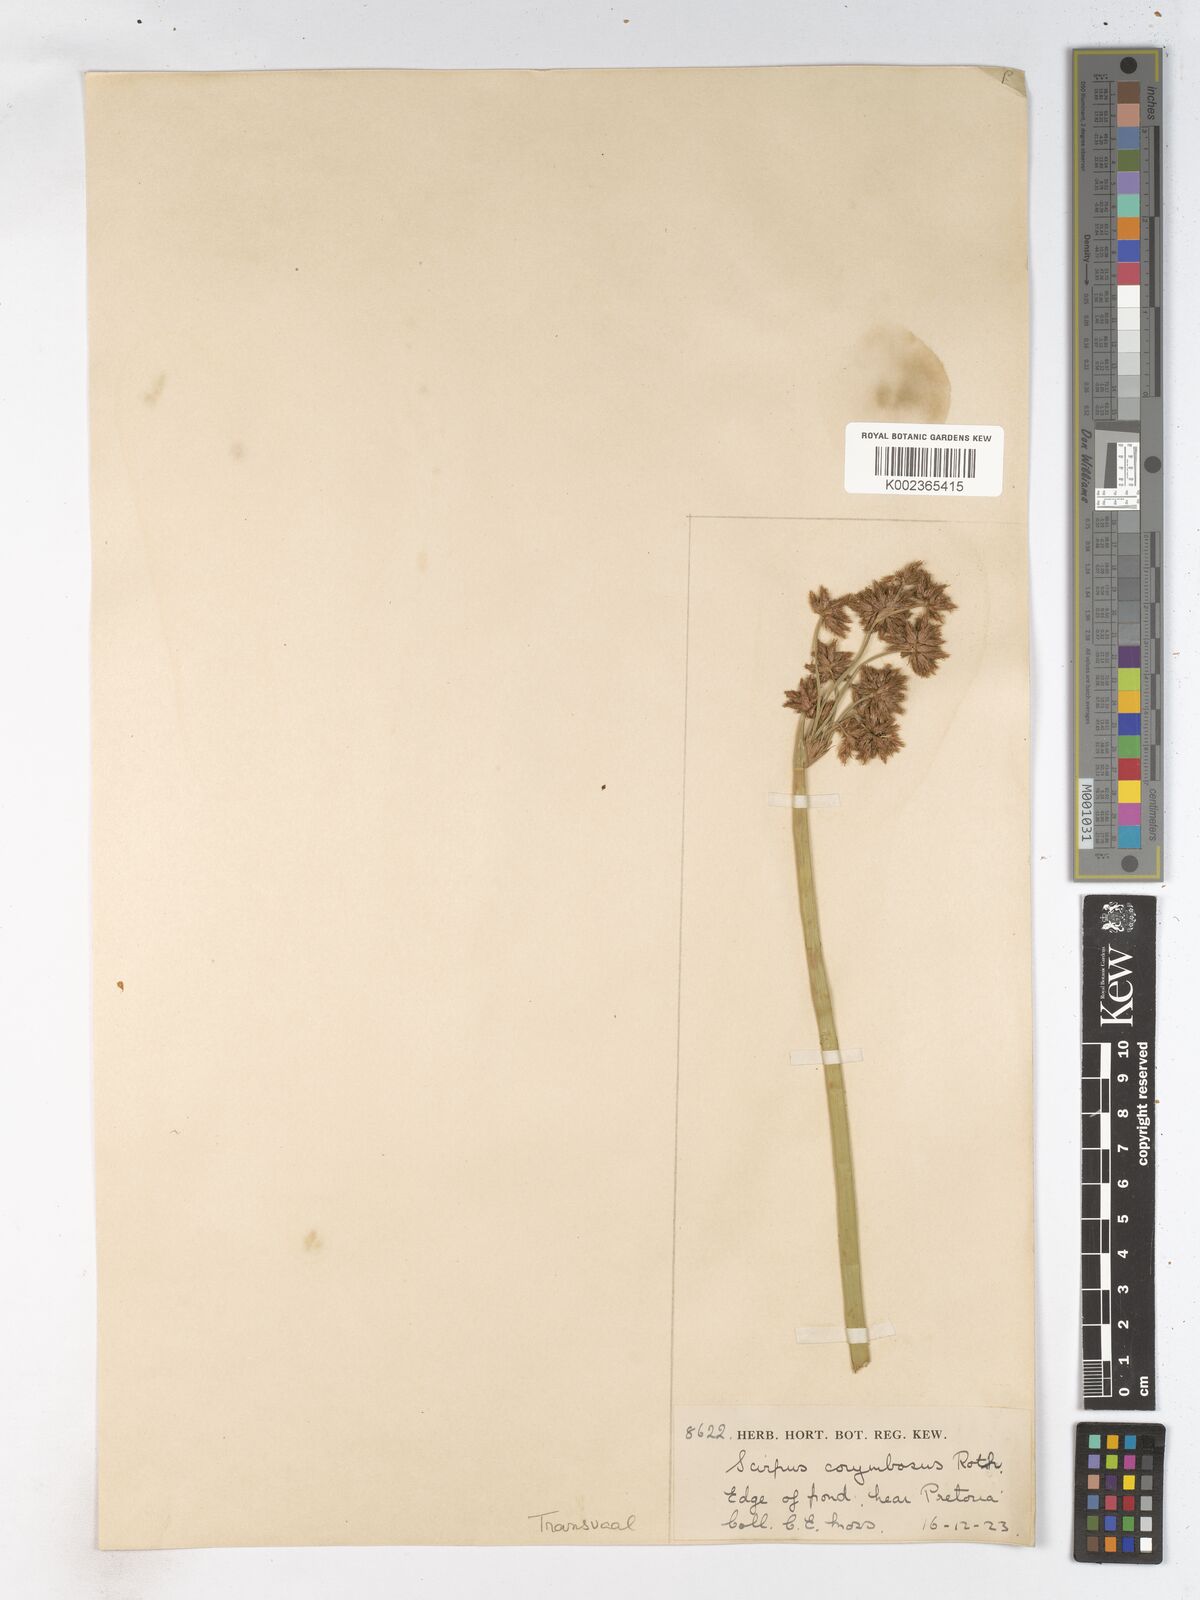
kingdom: Plantae
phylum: Tracheophyta
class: Liliopsida
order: Poales
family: Cyperaceae
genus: Schoenoplectiella
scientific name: Schoenoplectiella brachyceras
